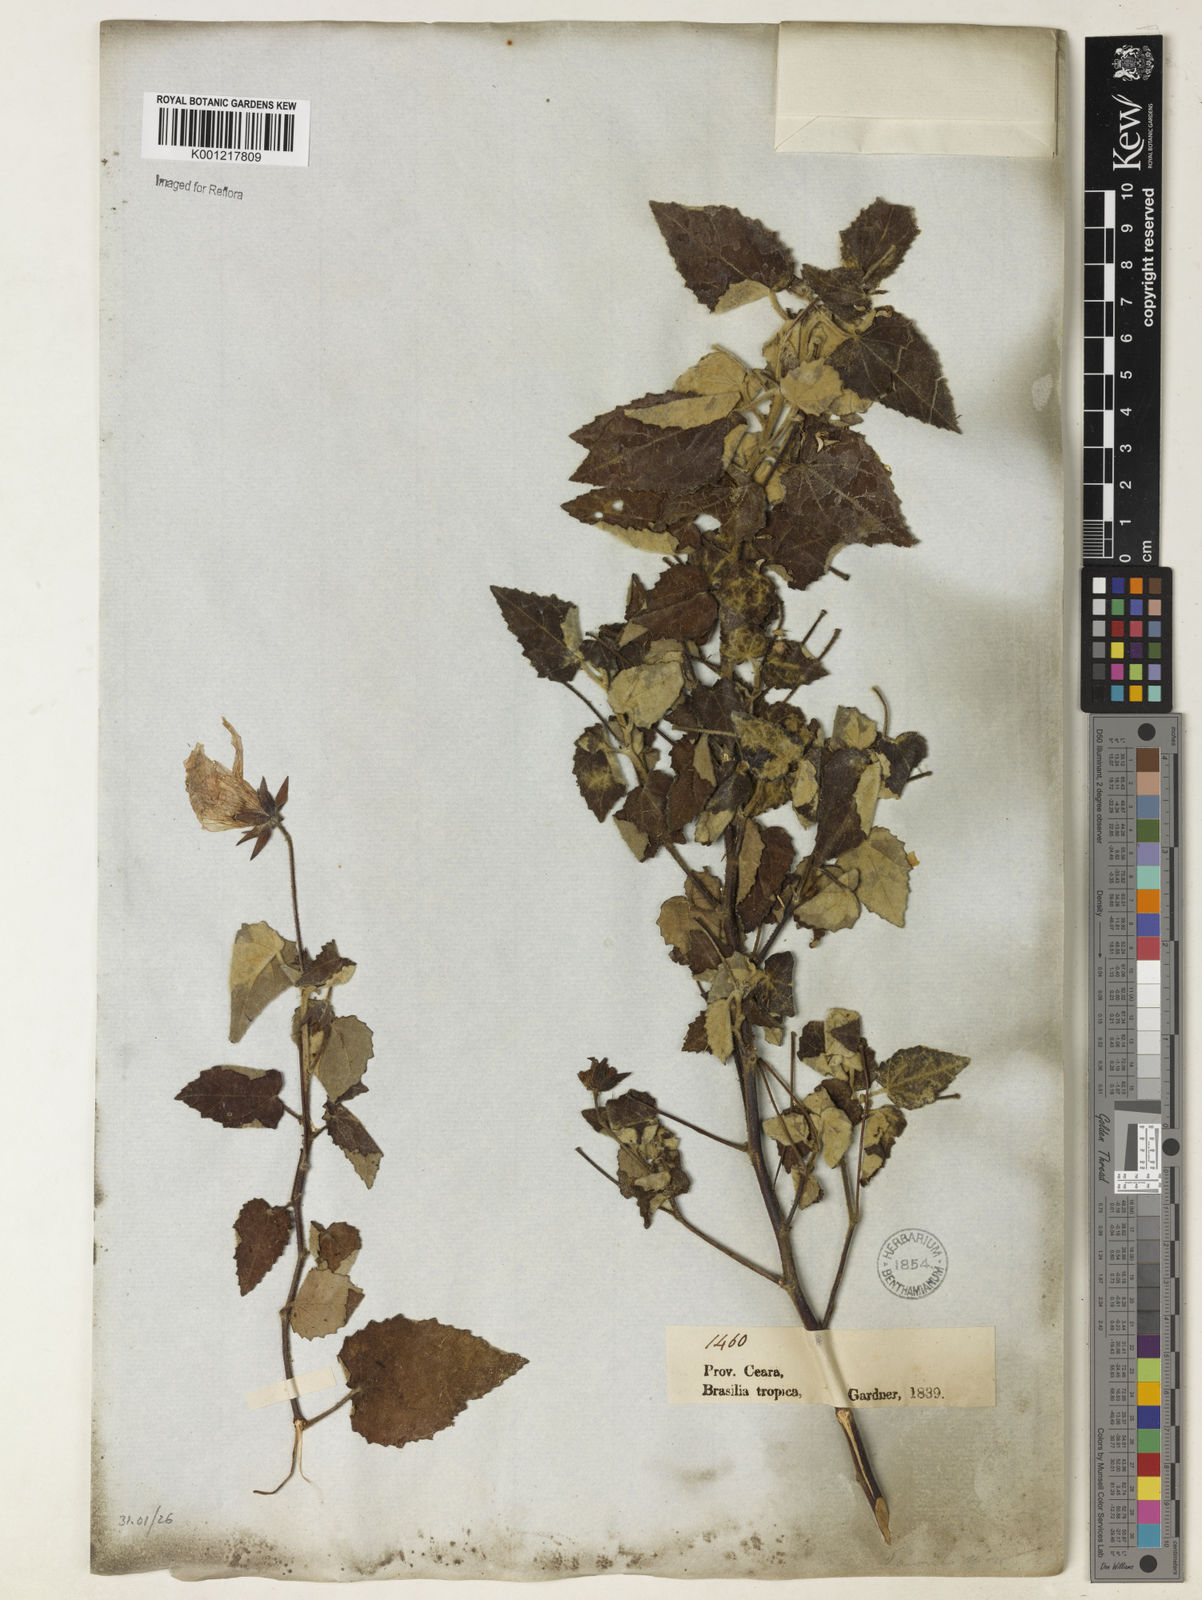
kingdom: Plantae
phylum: Tracheophyta
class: Magnoliopsida
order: Malvales
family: Malvaceae
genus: Pavonia
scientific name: Pavonia
